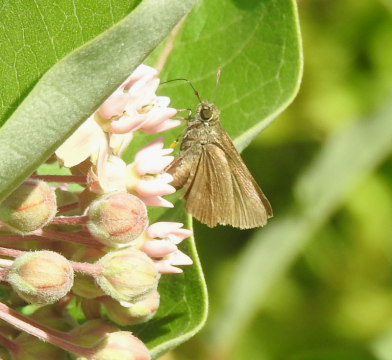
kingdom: Animalia
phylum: Arthropoda
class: Insecta
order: Lepidoptera
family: Hesperiidae
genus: Euphyes
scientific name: Euphyes vestris
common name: Dun Skipper
